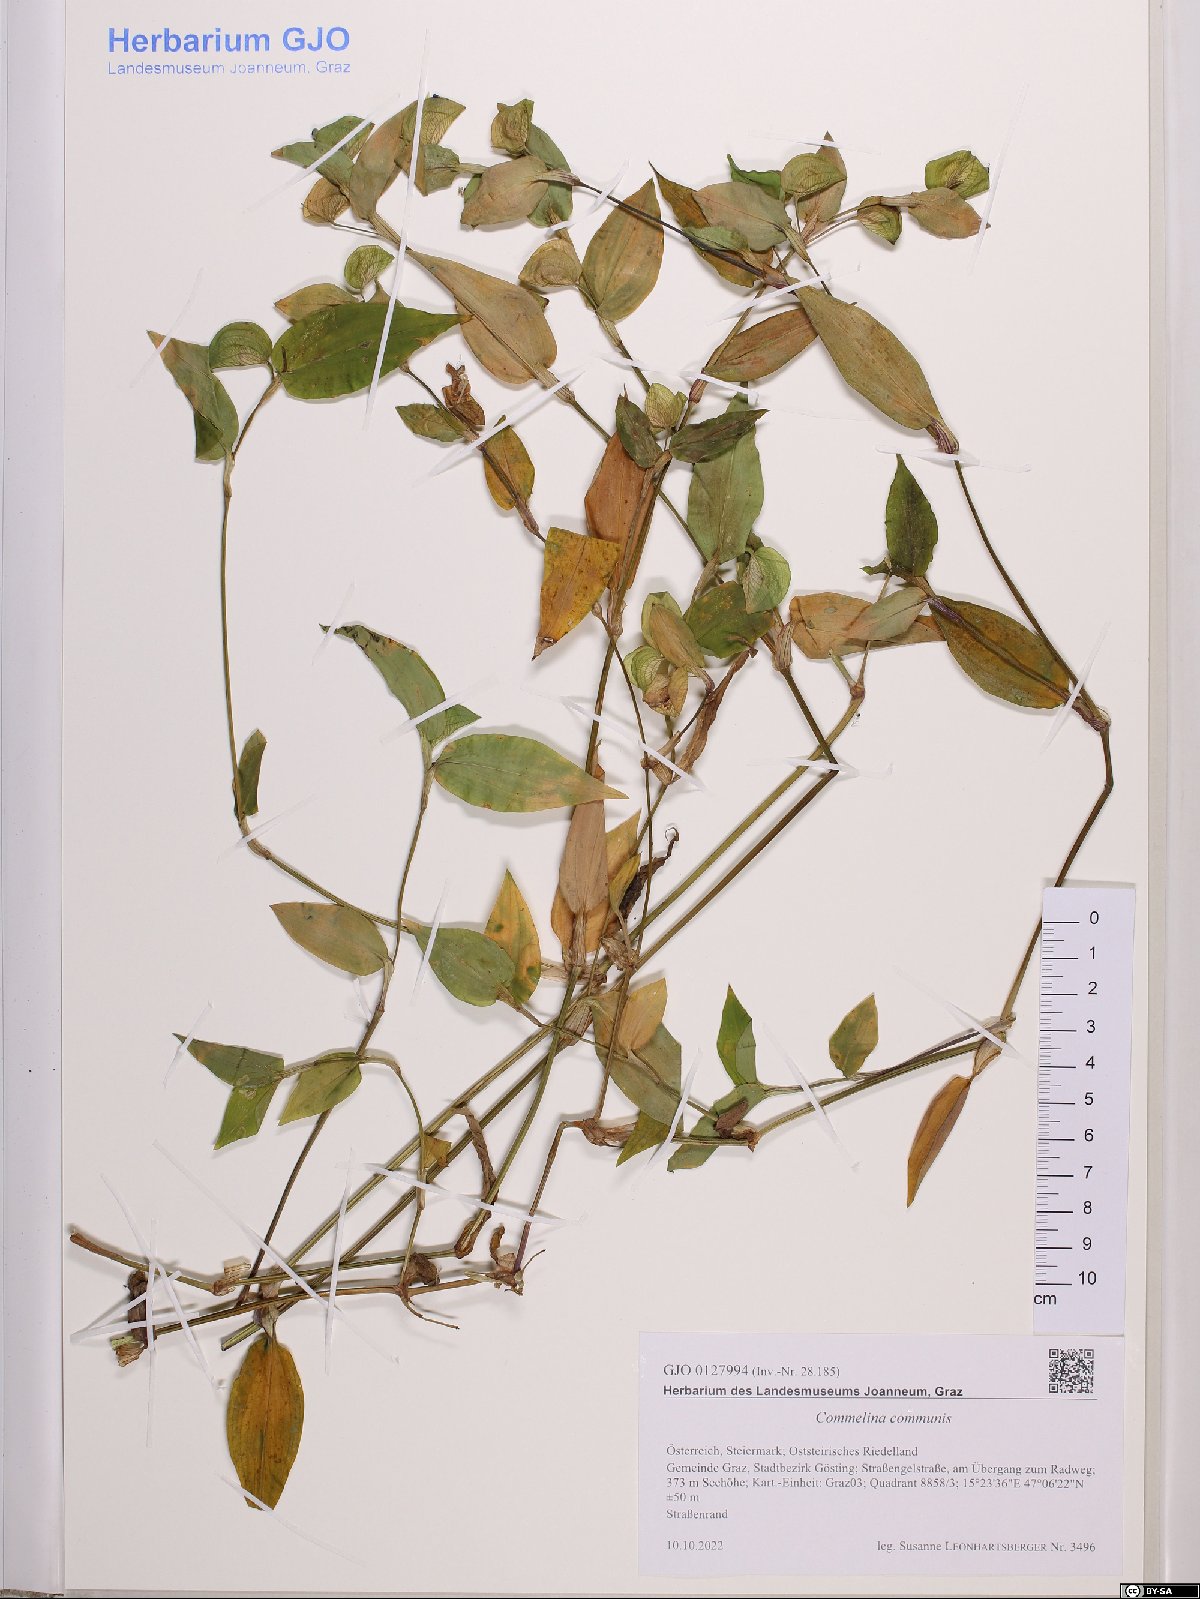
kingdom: Plantae
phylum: Tracheophyta
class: Liliopsida
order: Commelinales
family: Commelinaceae
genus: Commelina
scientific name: Commelina communis
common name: Asiatic dayflower
